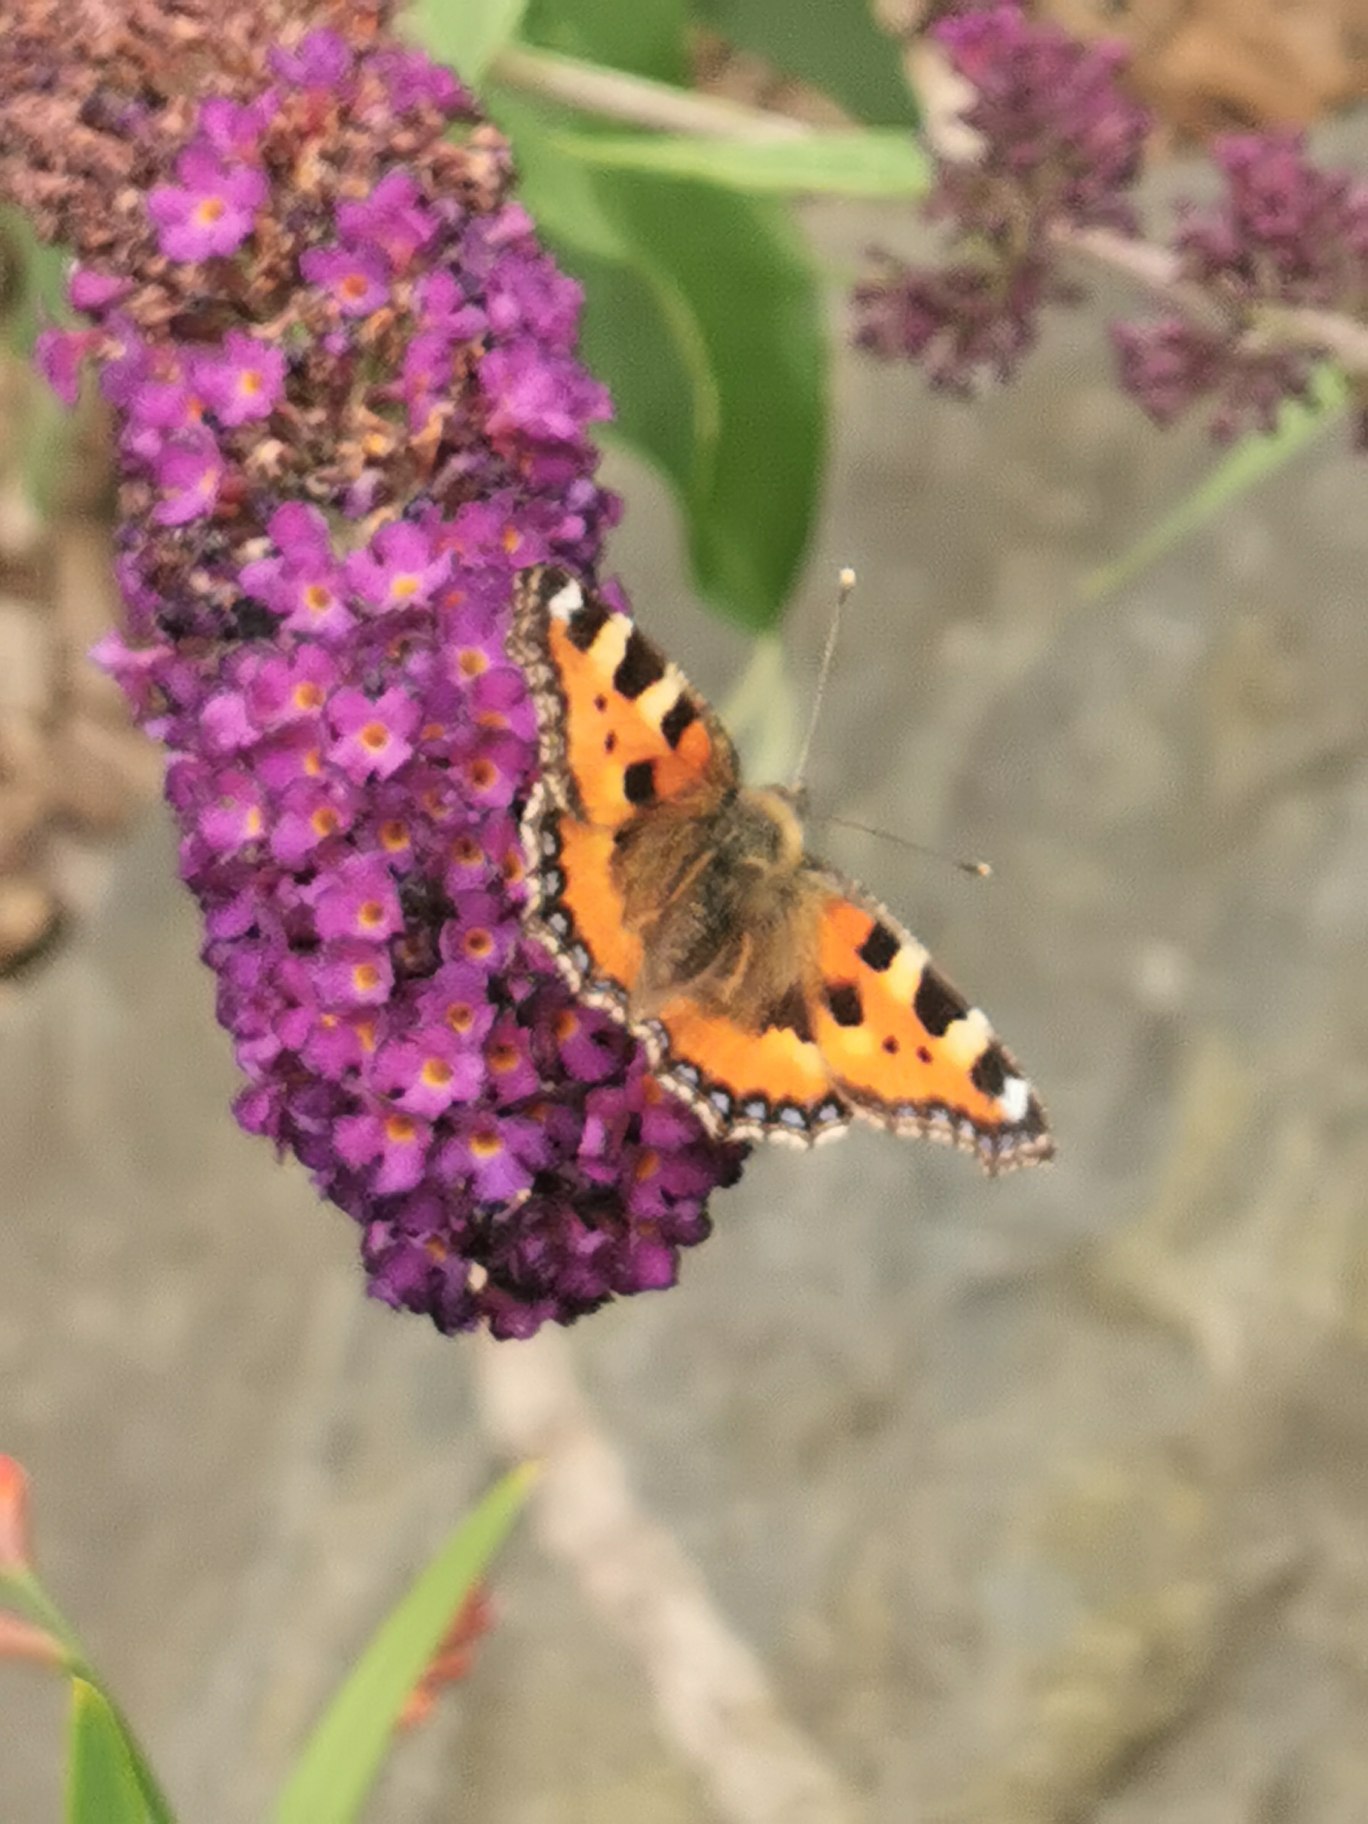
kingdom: Animalia
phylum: Arthropoda
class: Insecta
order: Lepidoptera
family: Nymphalidae
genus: Aglais
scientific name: Aglais urticae
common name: Nældens takvinge
